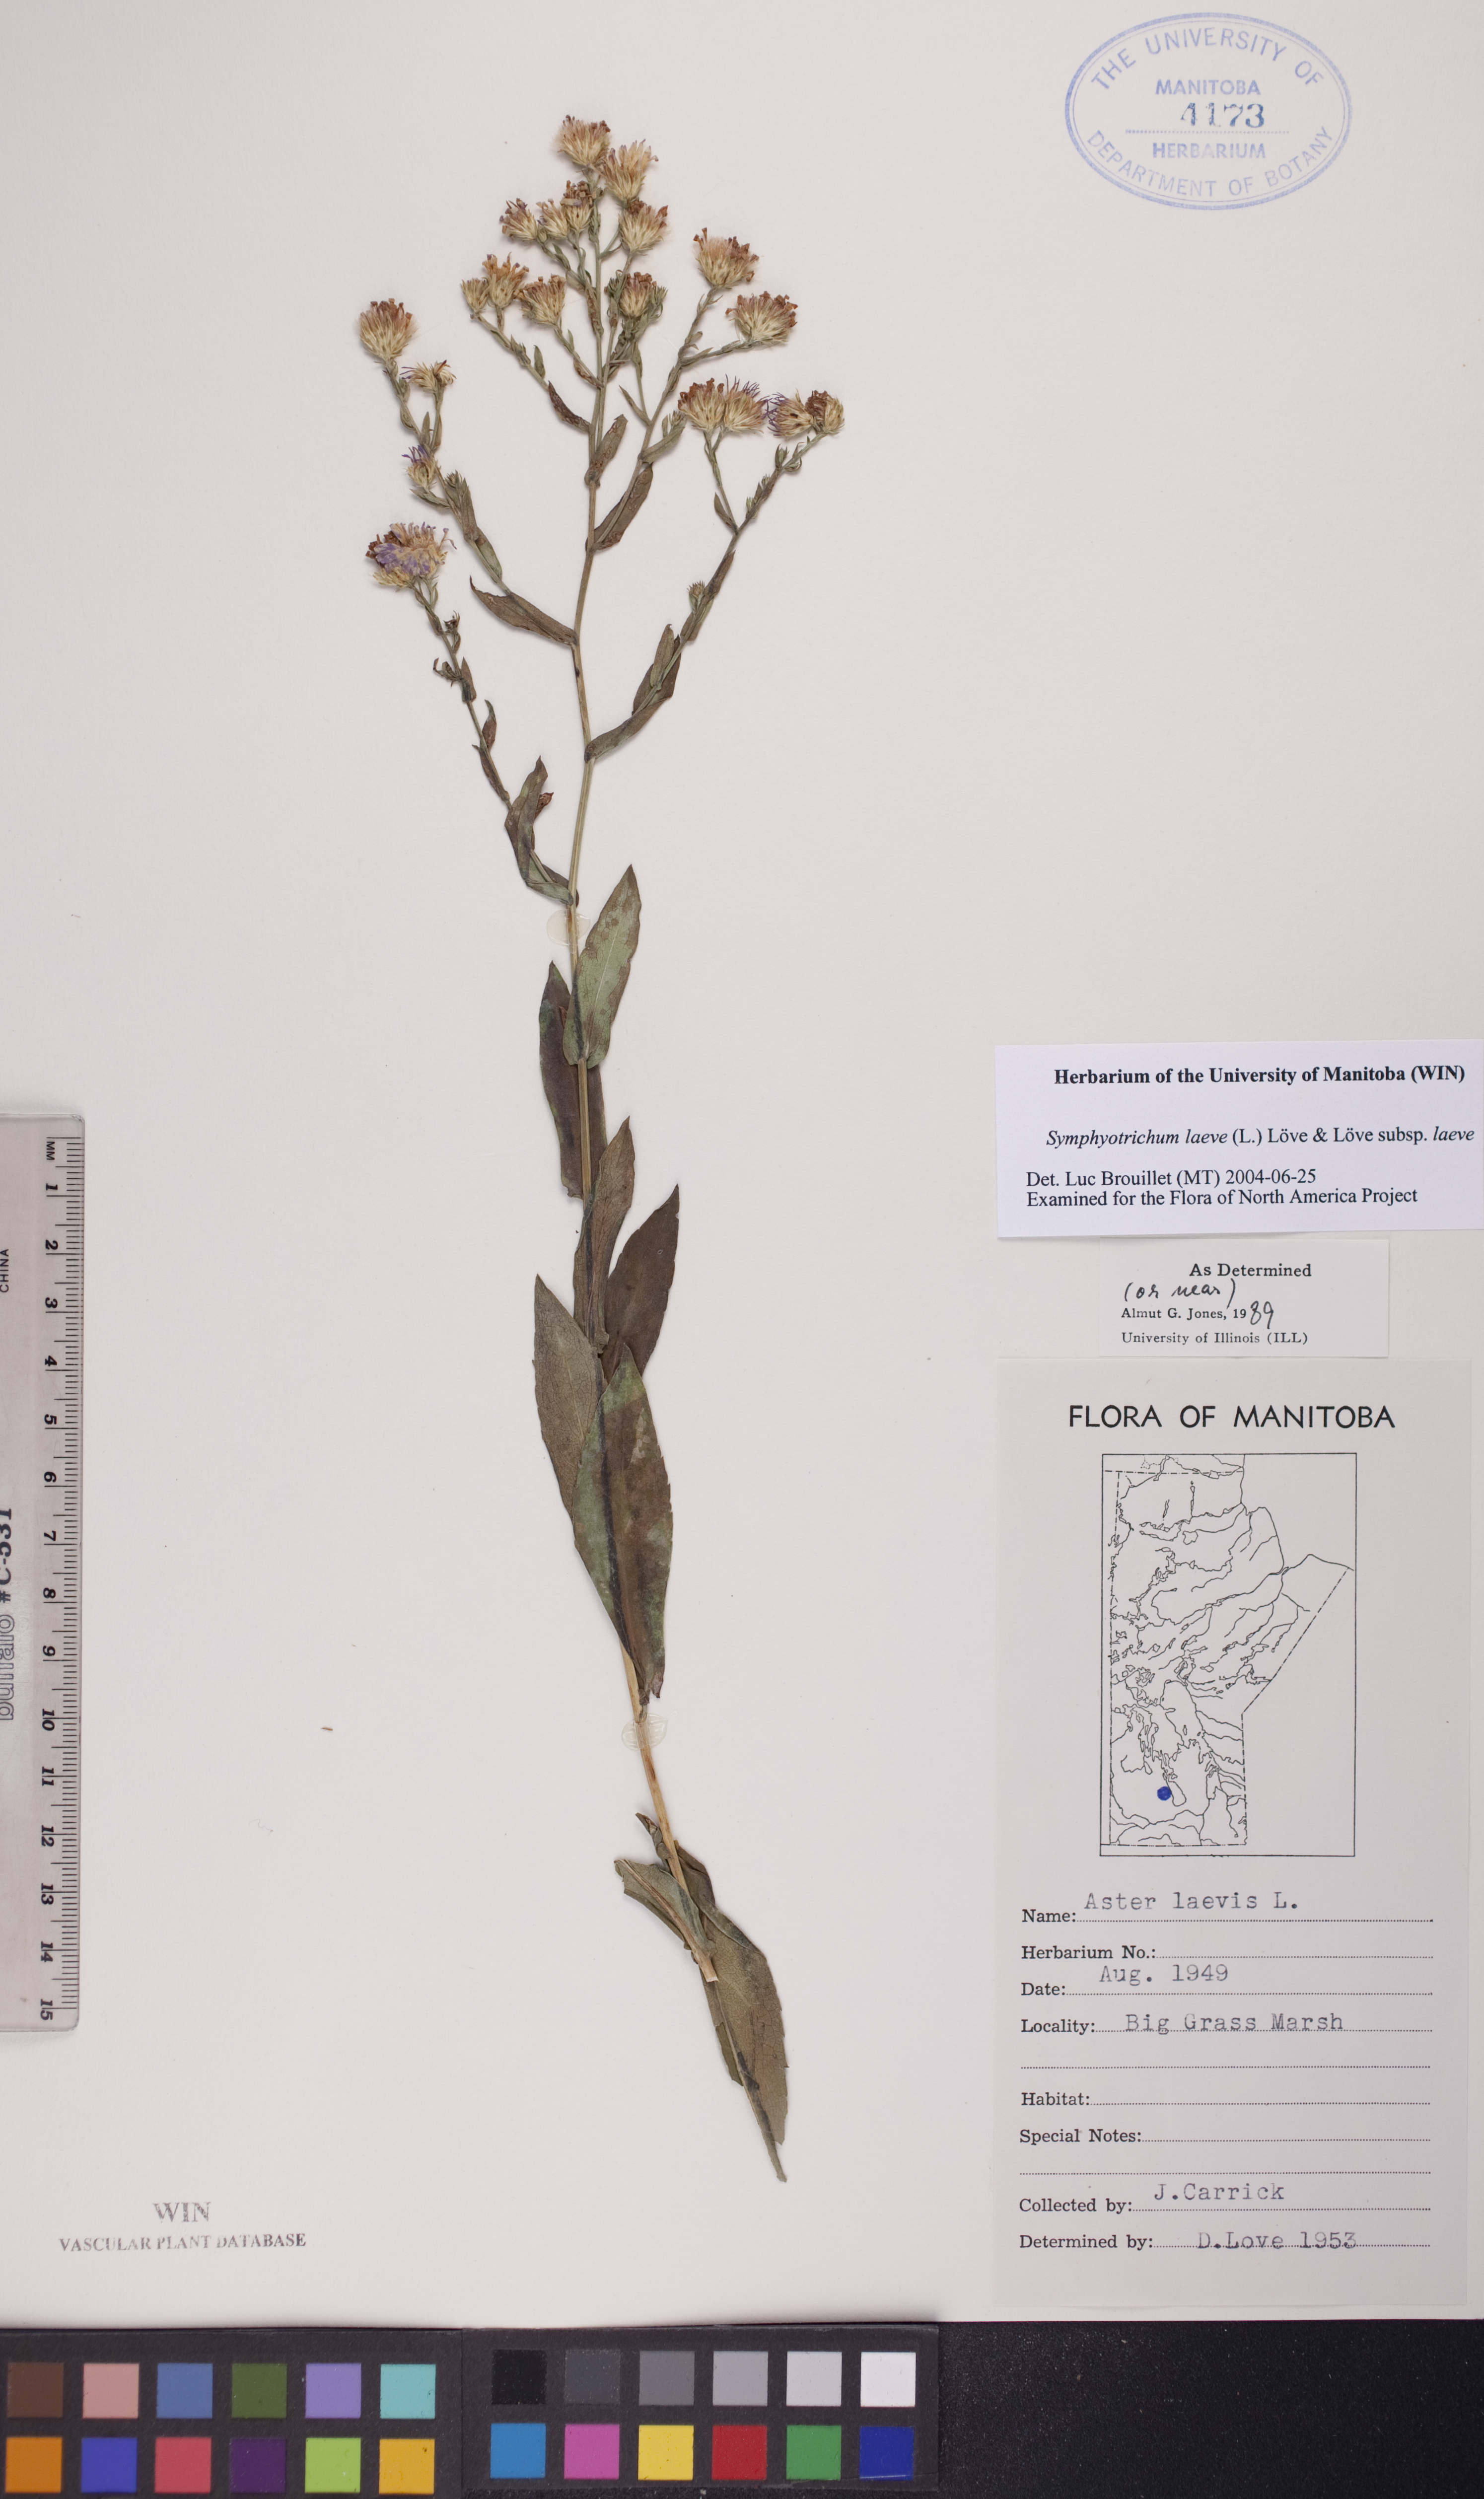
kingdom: Plantae
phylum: Tracheophyta
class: Magnoliopsida
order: Asterales
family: Asteraceae
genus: Symphyotrichum
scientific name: Symphyotrichum laeve
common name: Glaucous aster
